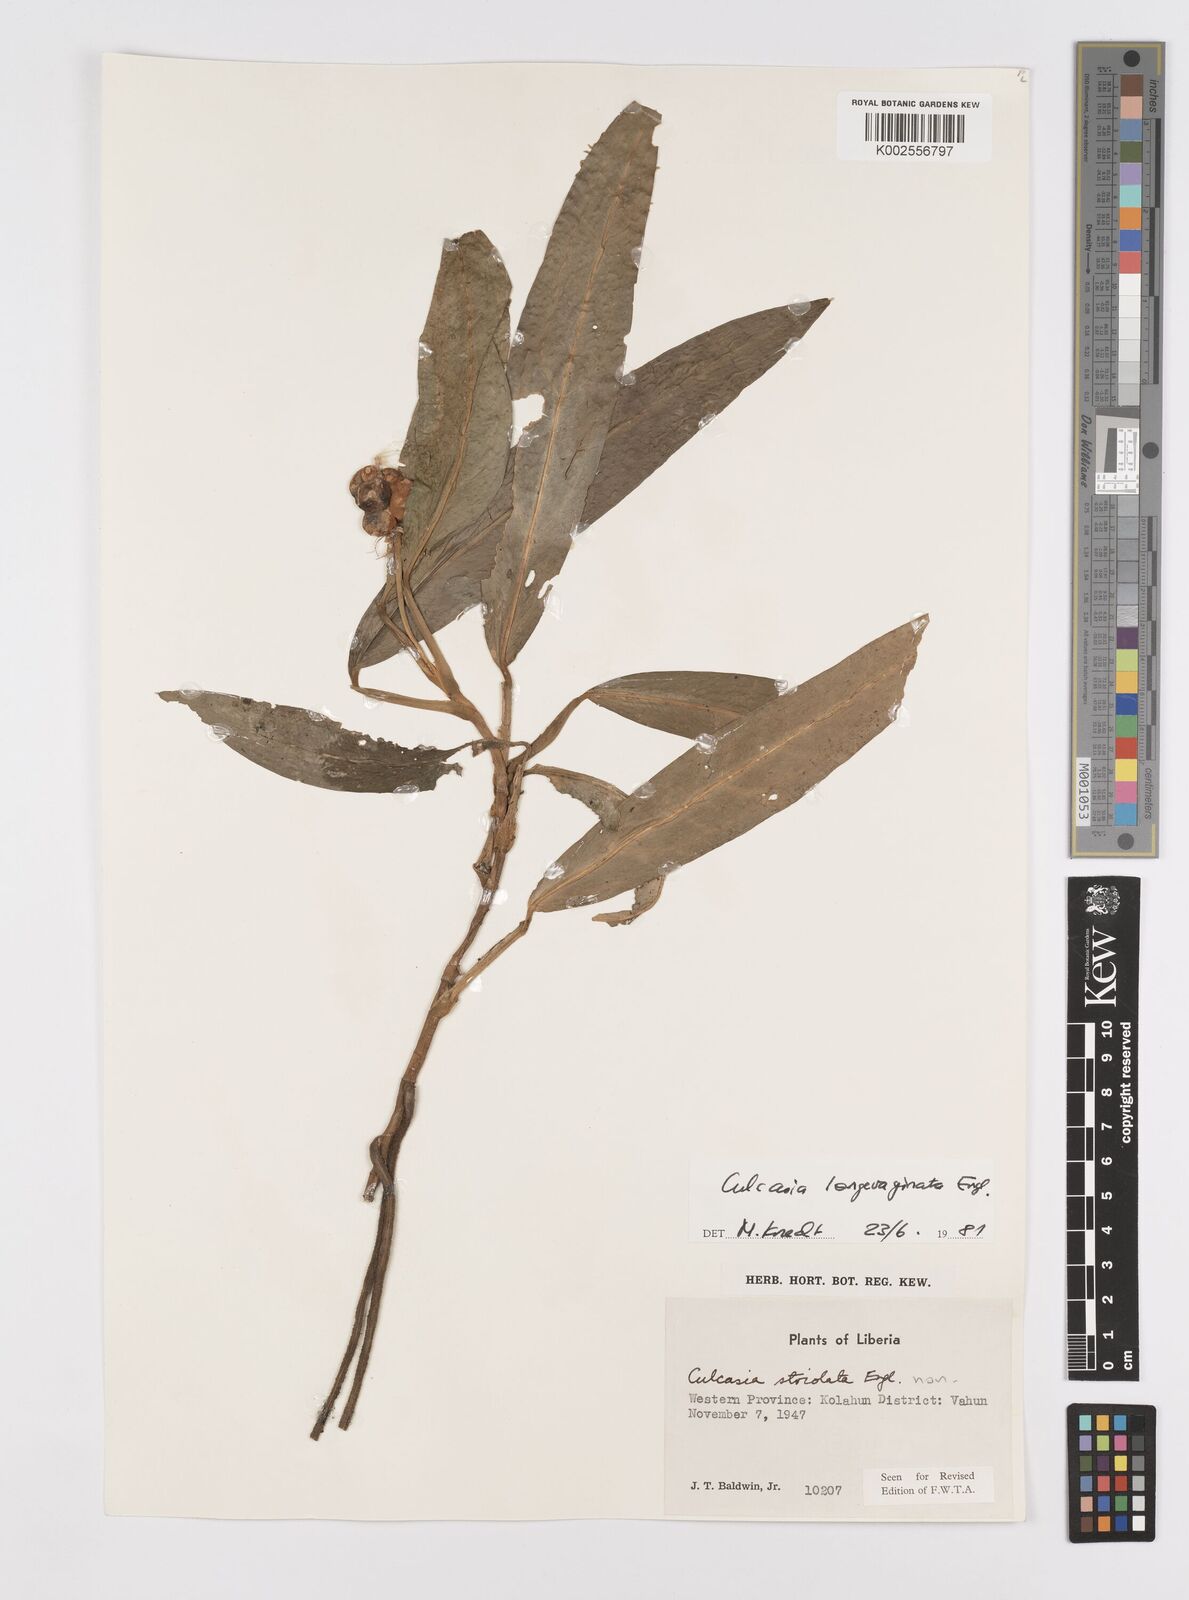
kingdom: Plantae
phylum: Tracheophyta
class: Liliopsida
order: Alismatales
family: Araceae
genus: Culcasia
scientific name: Culcasia striolata
